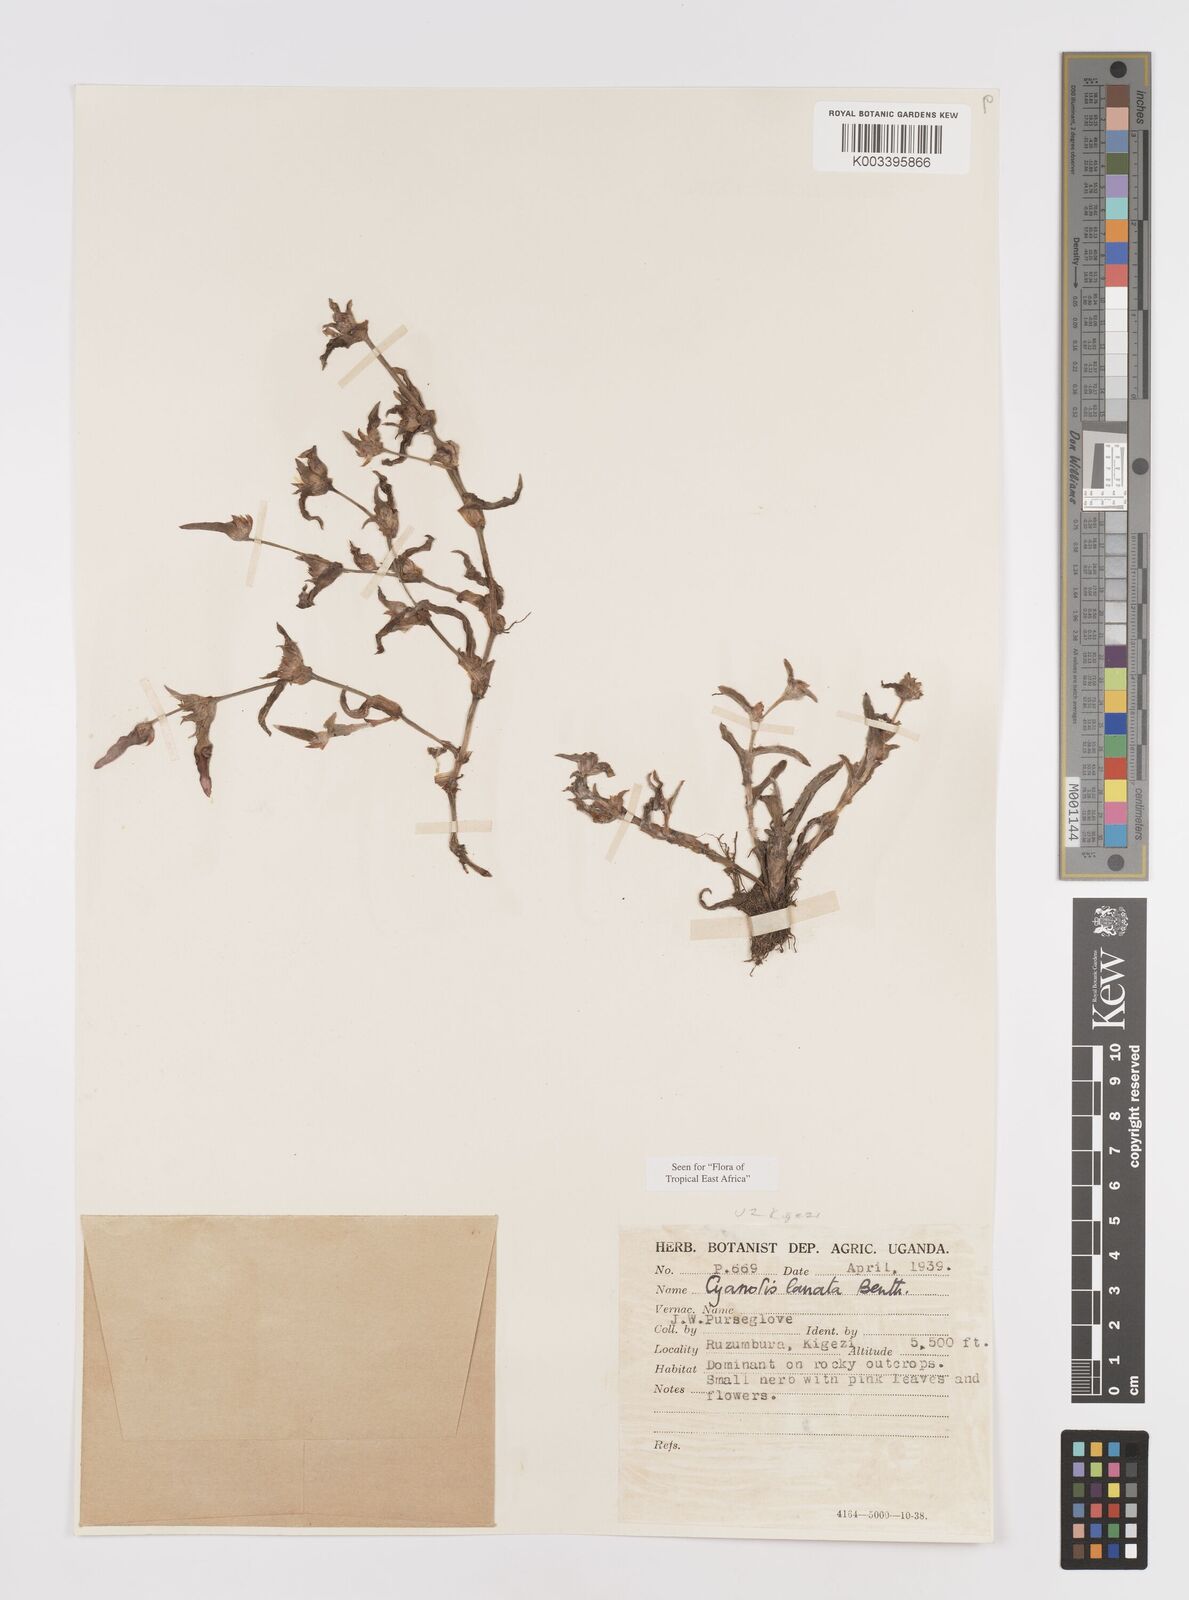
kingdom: Plantae
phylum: Tracheophyta
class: Liliopsida
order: Commelinales
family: Commelinaceae
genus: Cyanotis
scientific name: Cyanotis lanata
